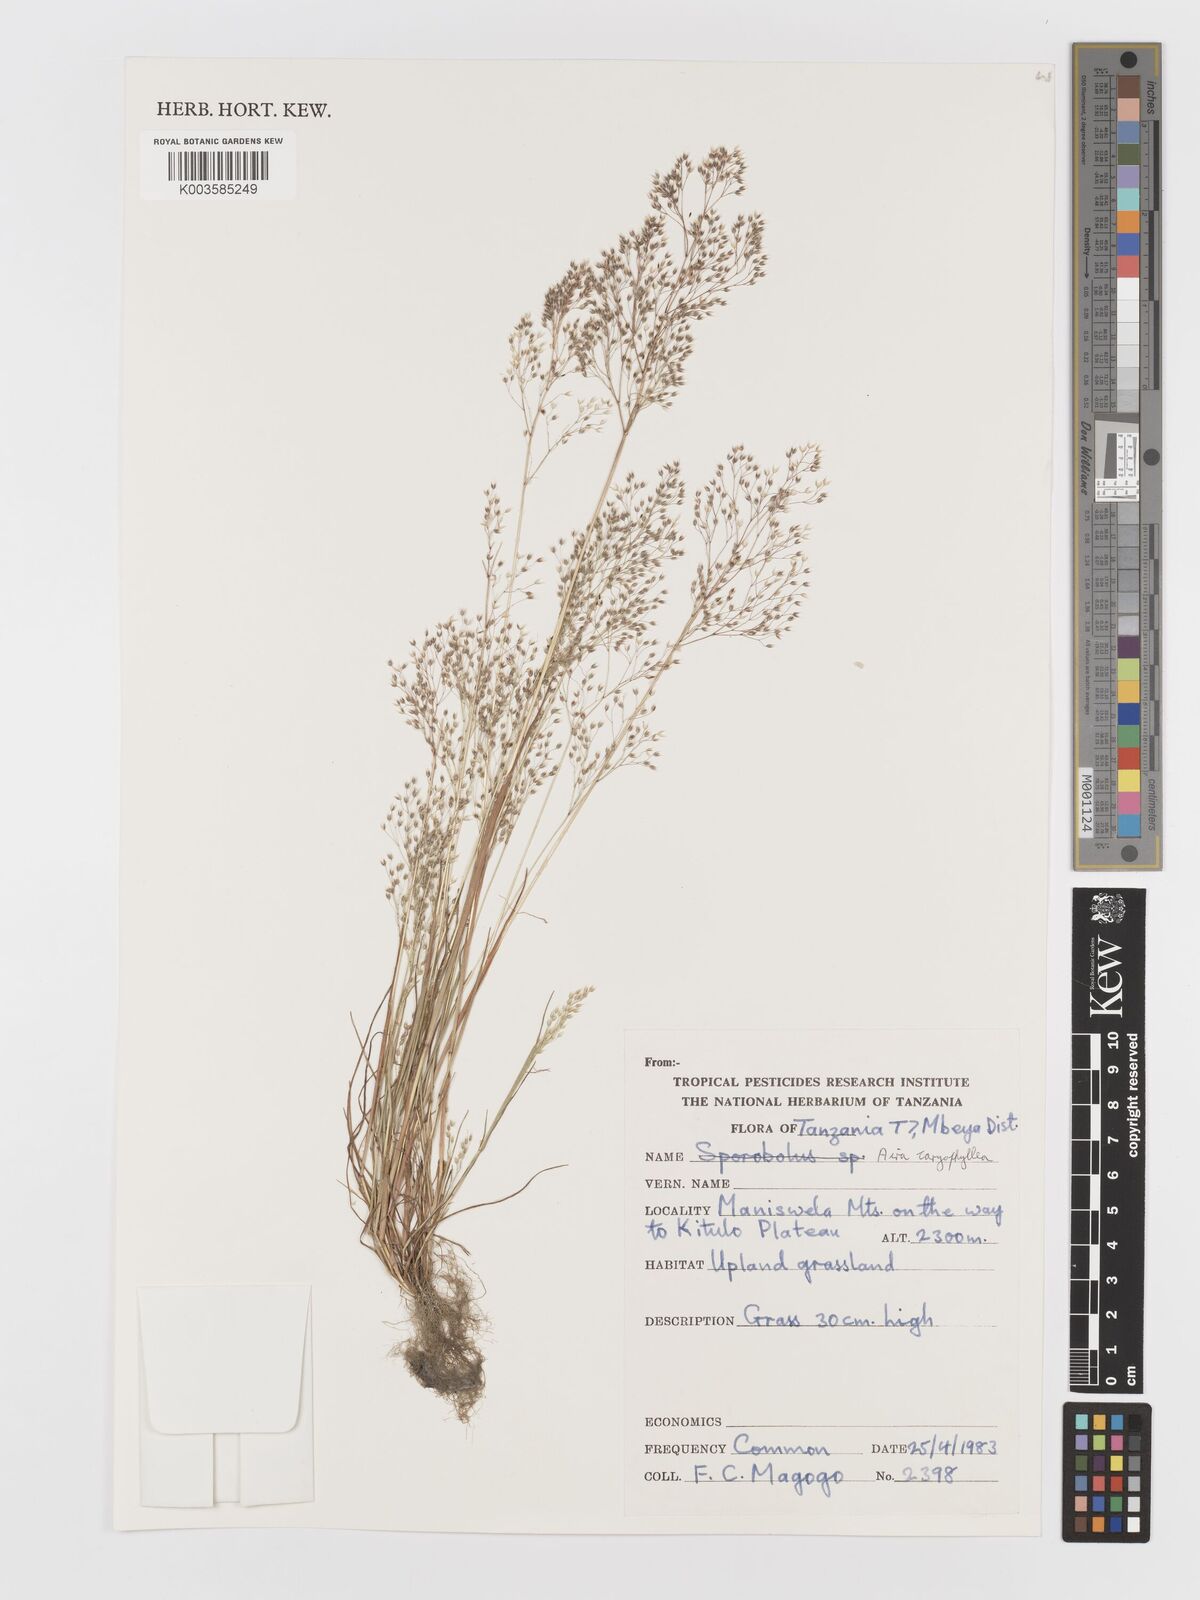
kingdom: Plantae
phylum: Tracheophyta
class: Liliopsida
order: Poales
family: Poaceae
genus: Aira
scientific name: Aira caryophyllea
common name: Silver hairgrass
